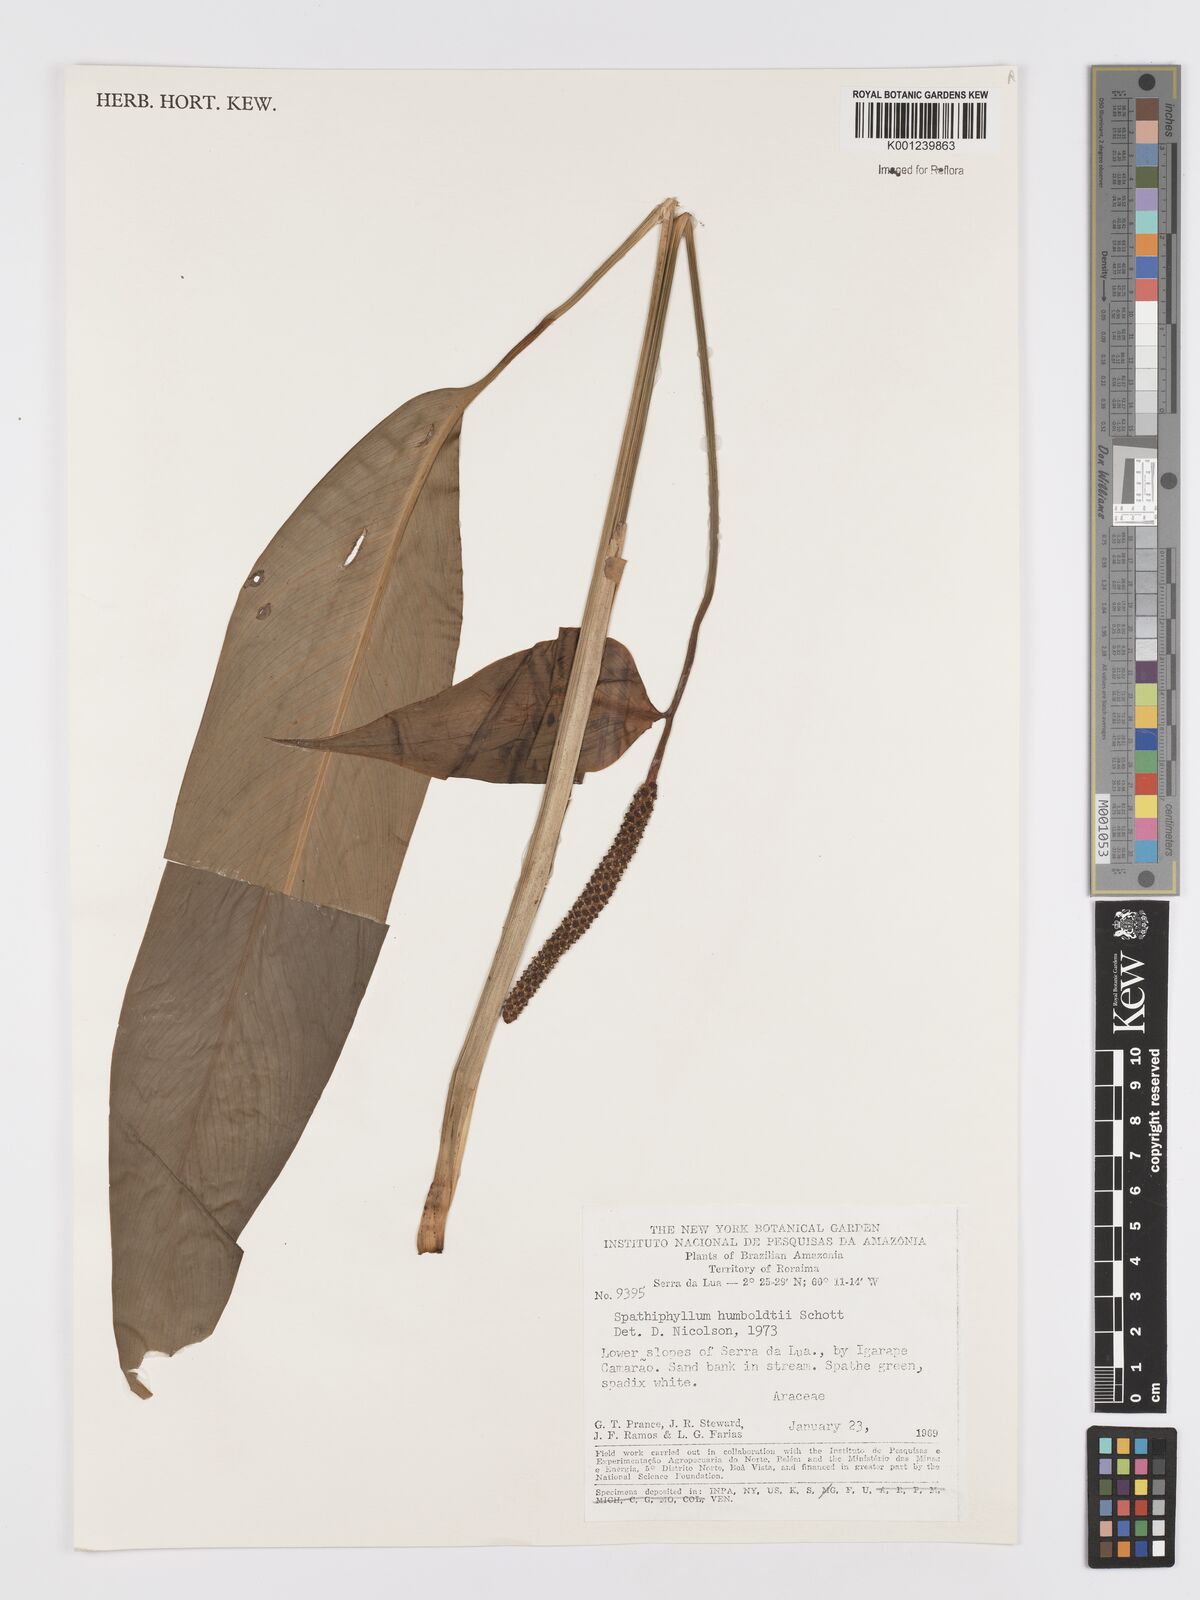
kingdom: Plantae
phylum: Tracheophyta
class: Liliopsida
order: Alismatales
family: Araceae
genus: Spathiphyllum
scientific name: Spathiphyllum humboldtii
